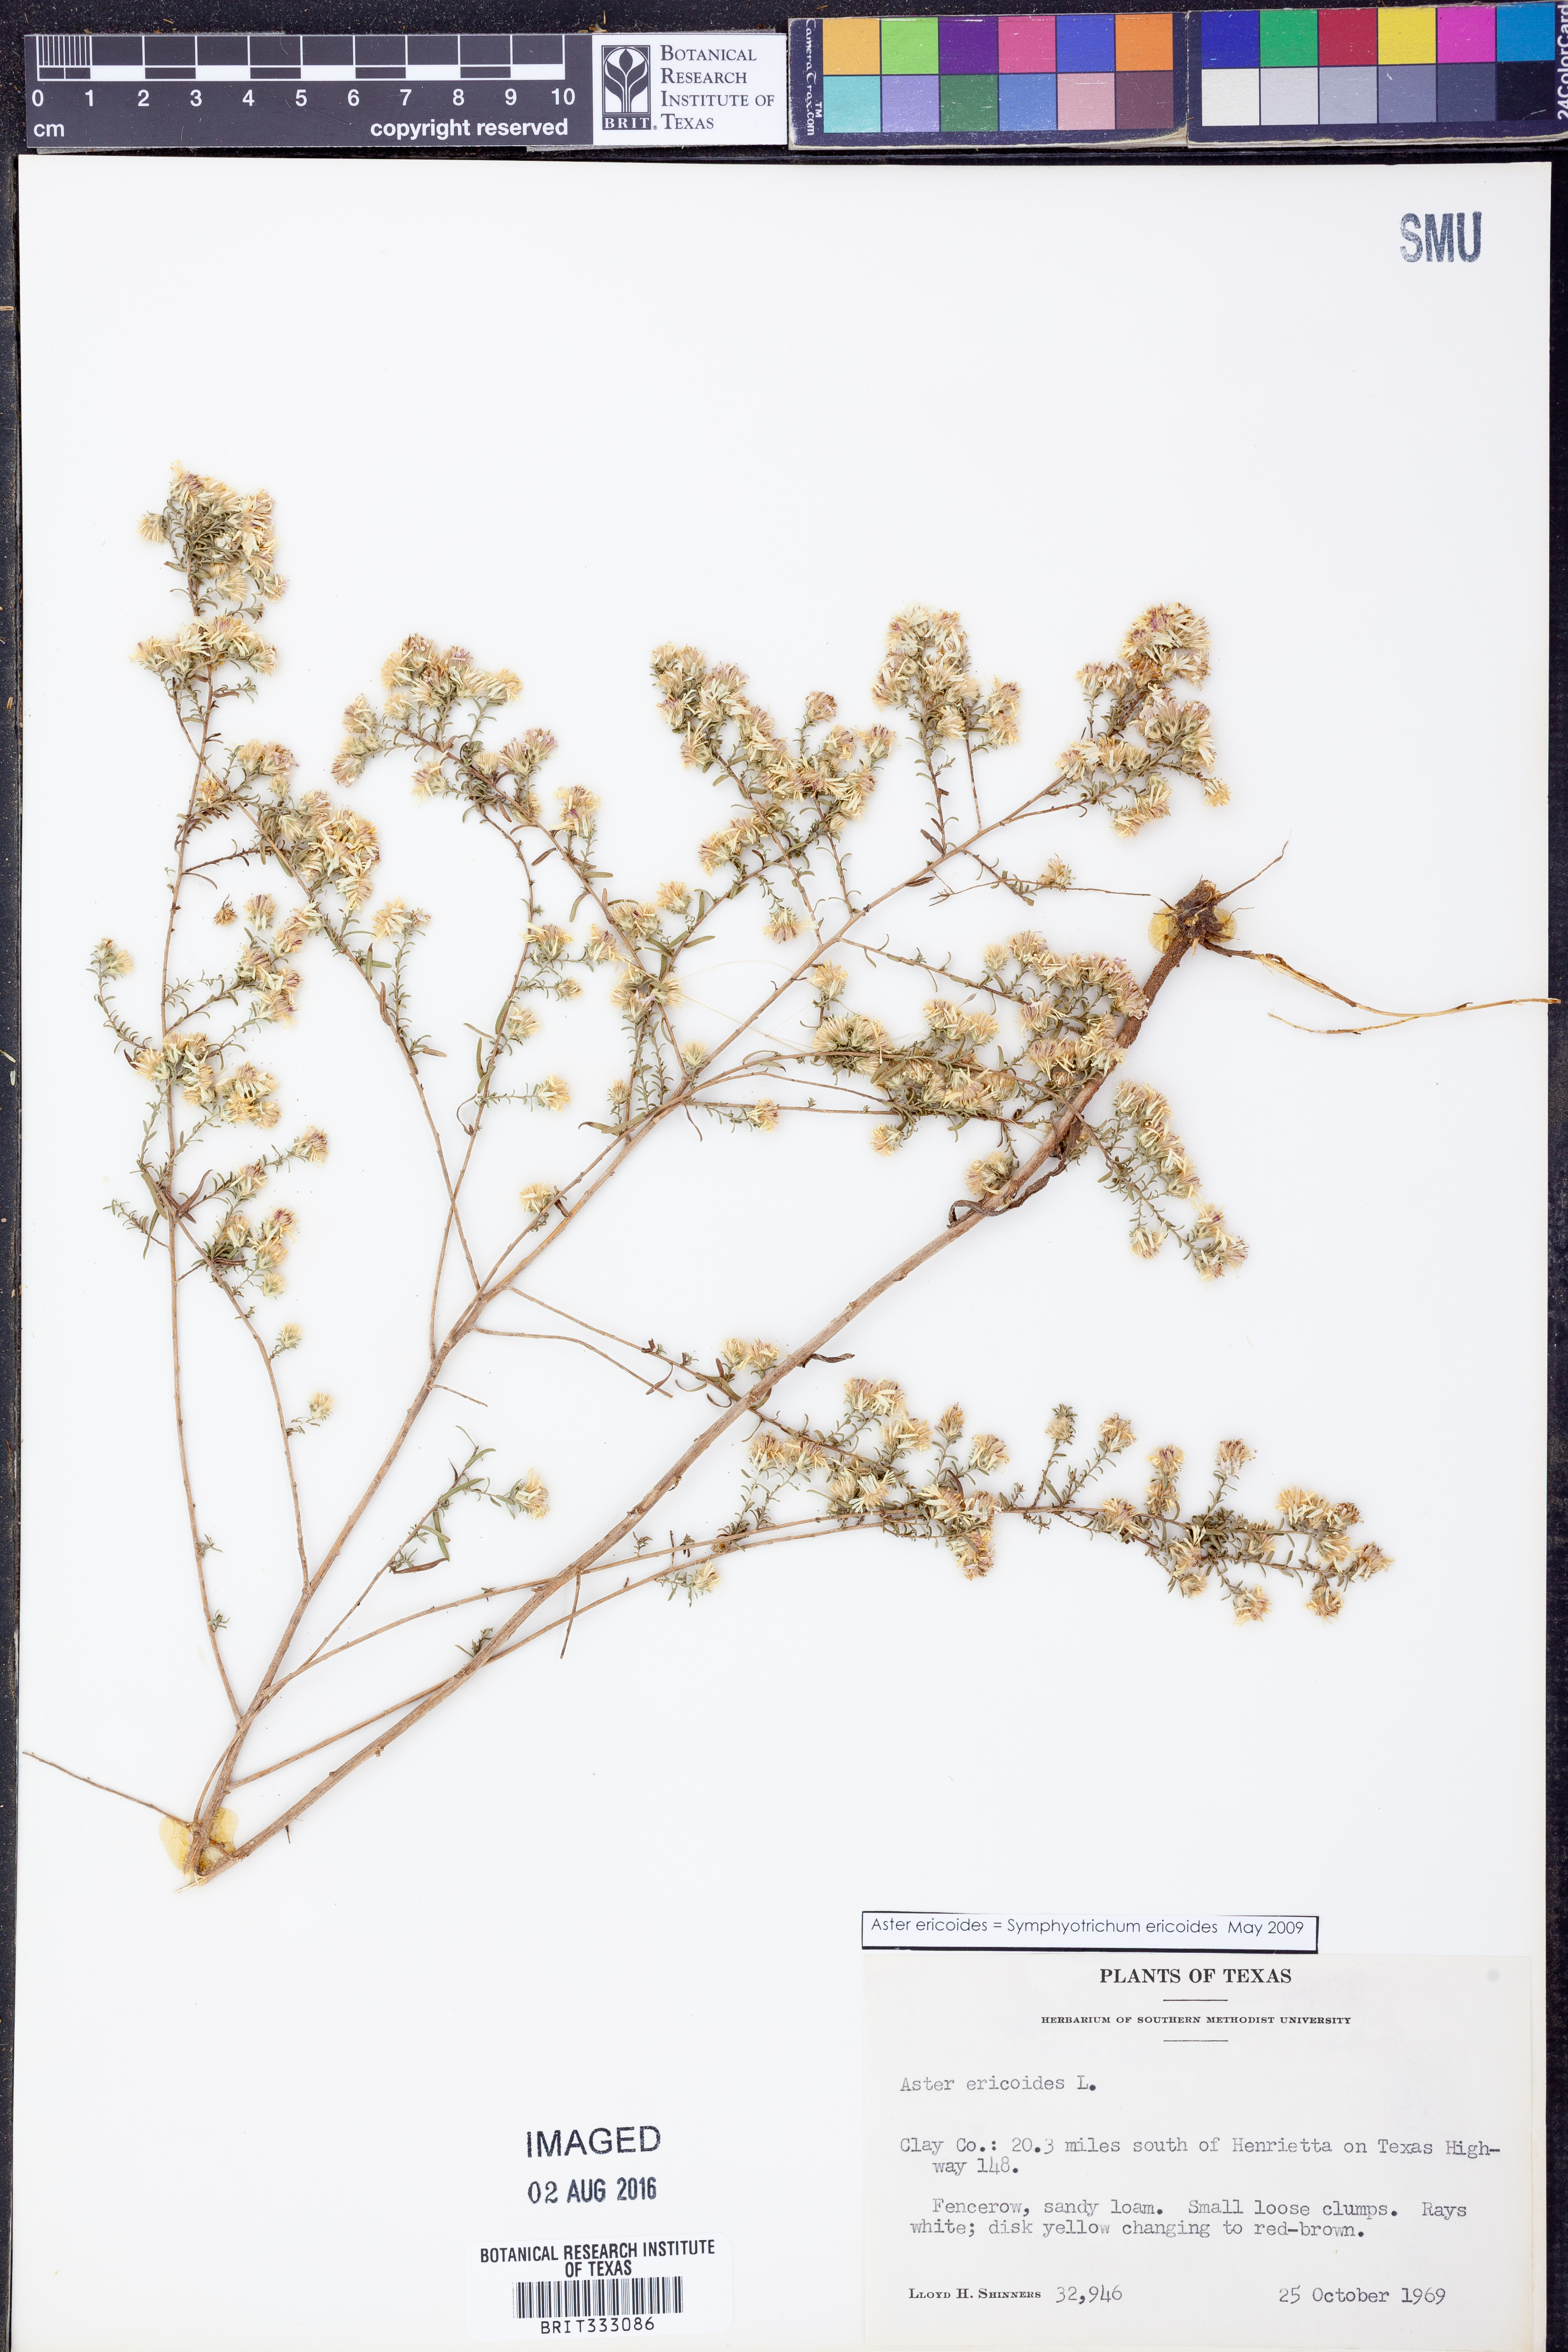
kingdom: Plantae
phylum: Tracheophyta
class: Magnoliopsida
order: Asterales
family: Asteraceae
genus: Symphyotrichum
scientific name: Symphyotrichum ericoides
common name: Heath aster
